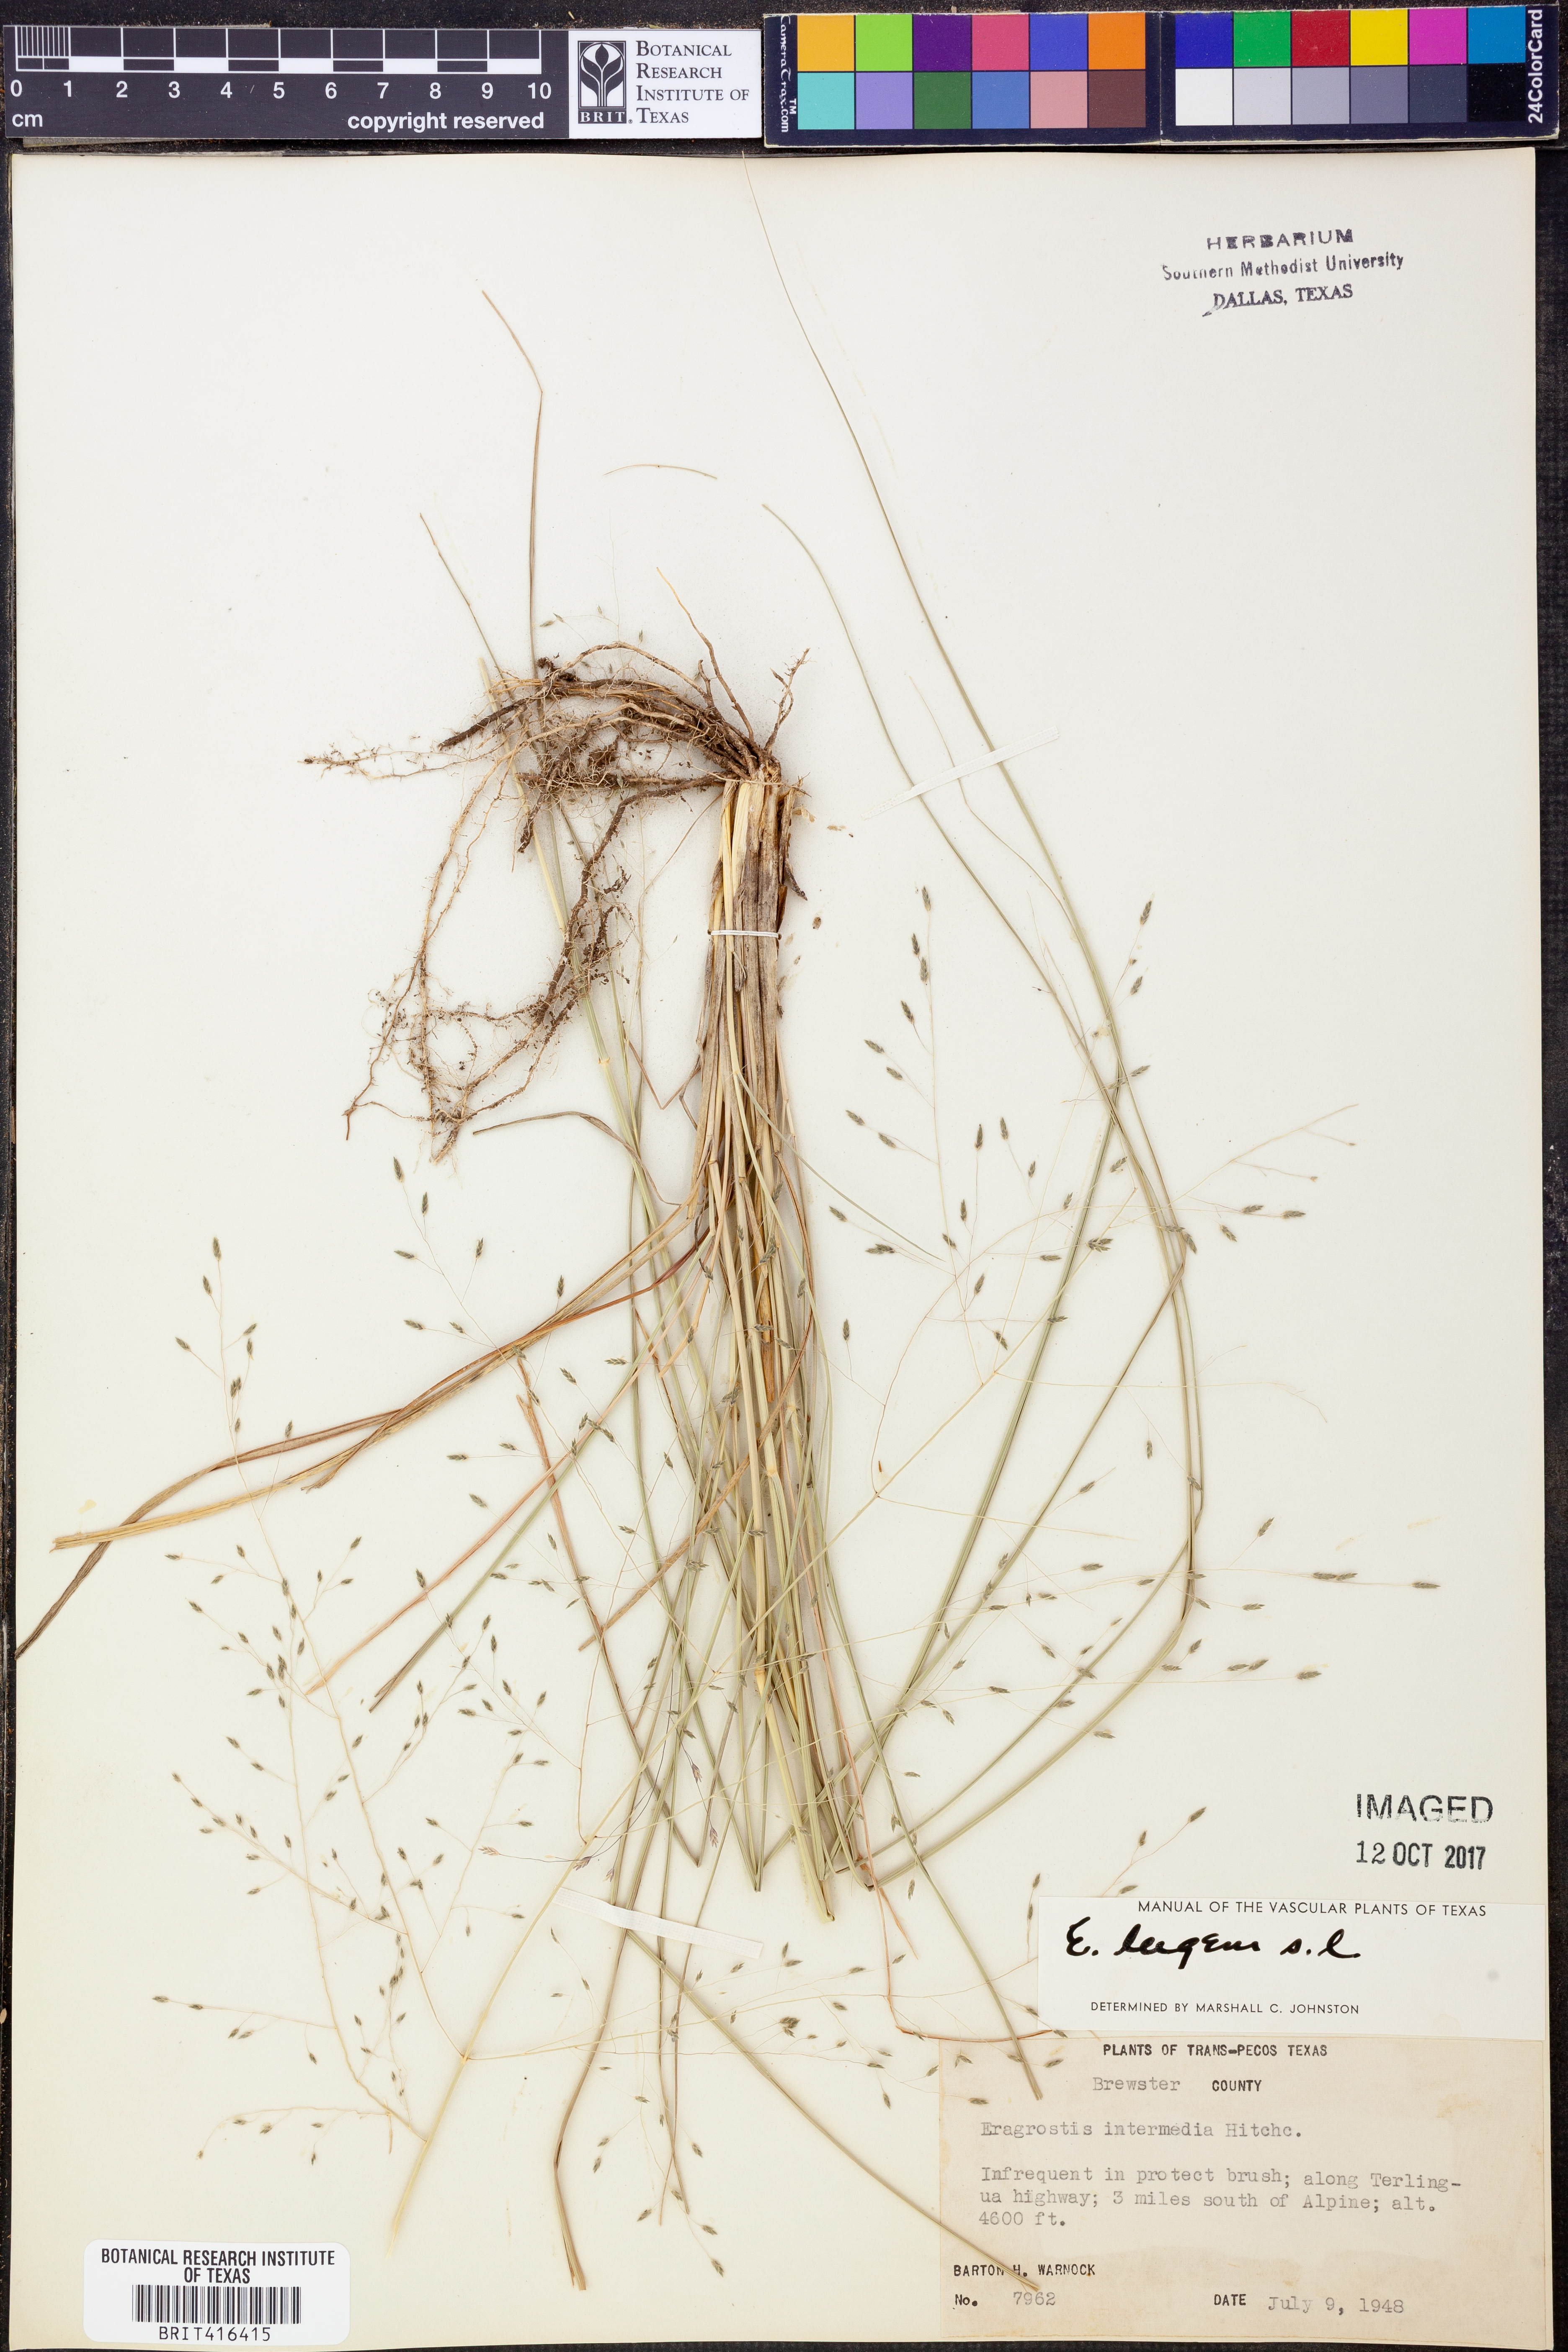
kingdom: Plantae
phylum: Tracheophyta
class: Liliopsida
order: Poales
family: Poaceae
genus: Eragrostis
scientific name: Eragrostis capillaris
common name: Hair-like lovegrass
